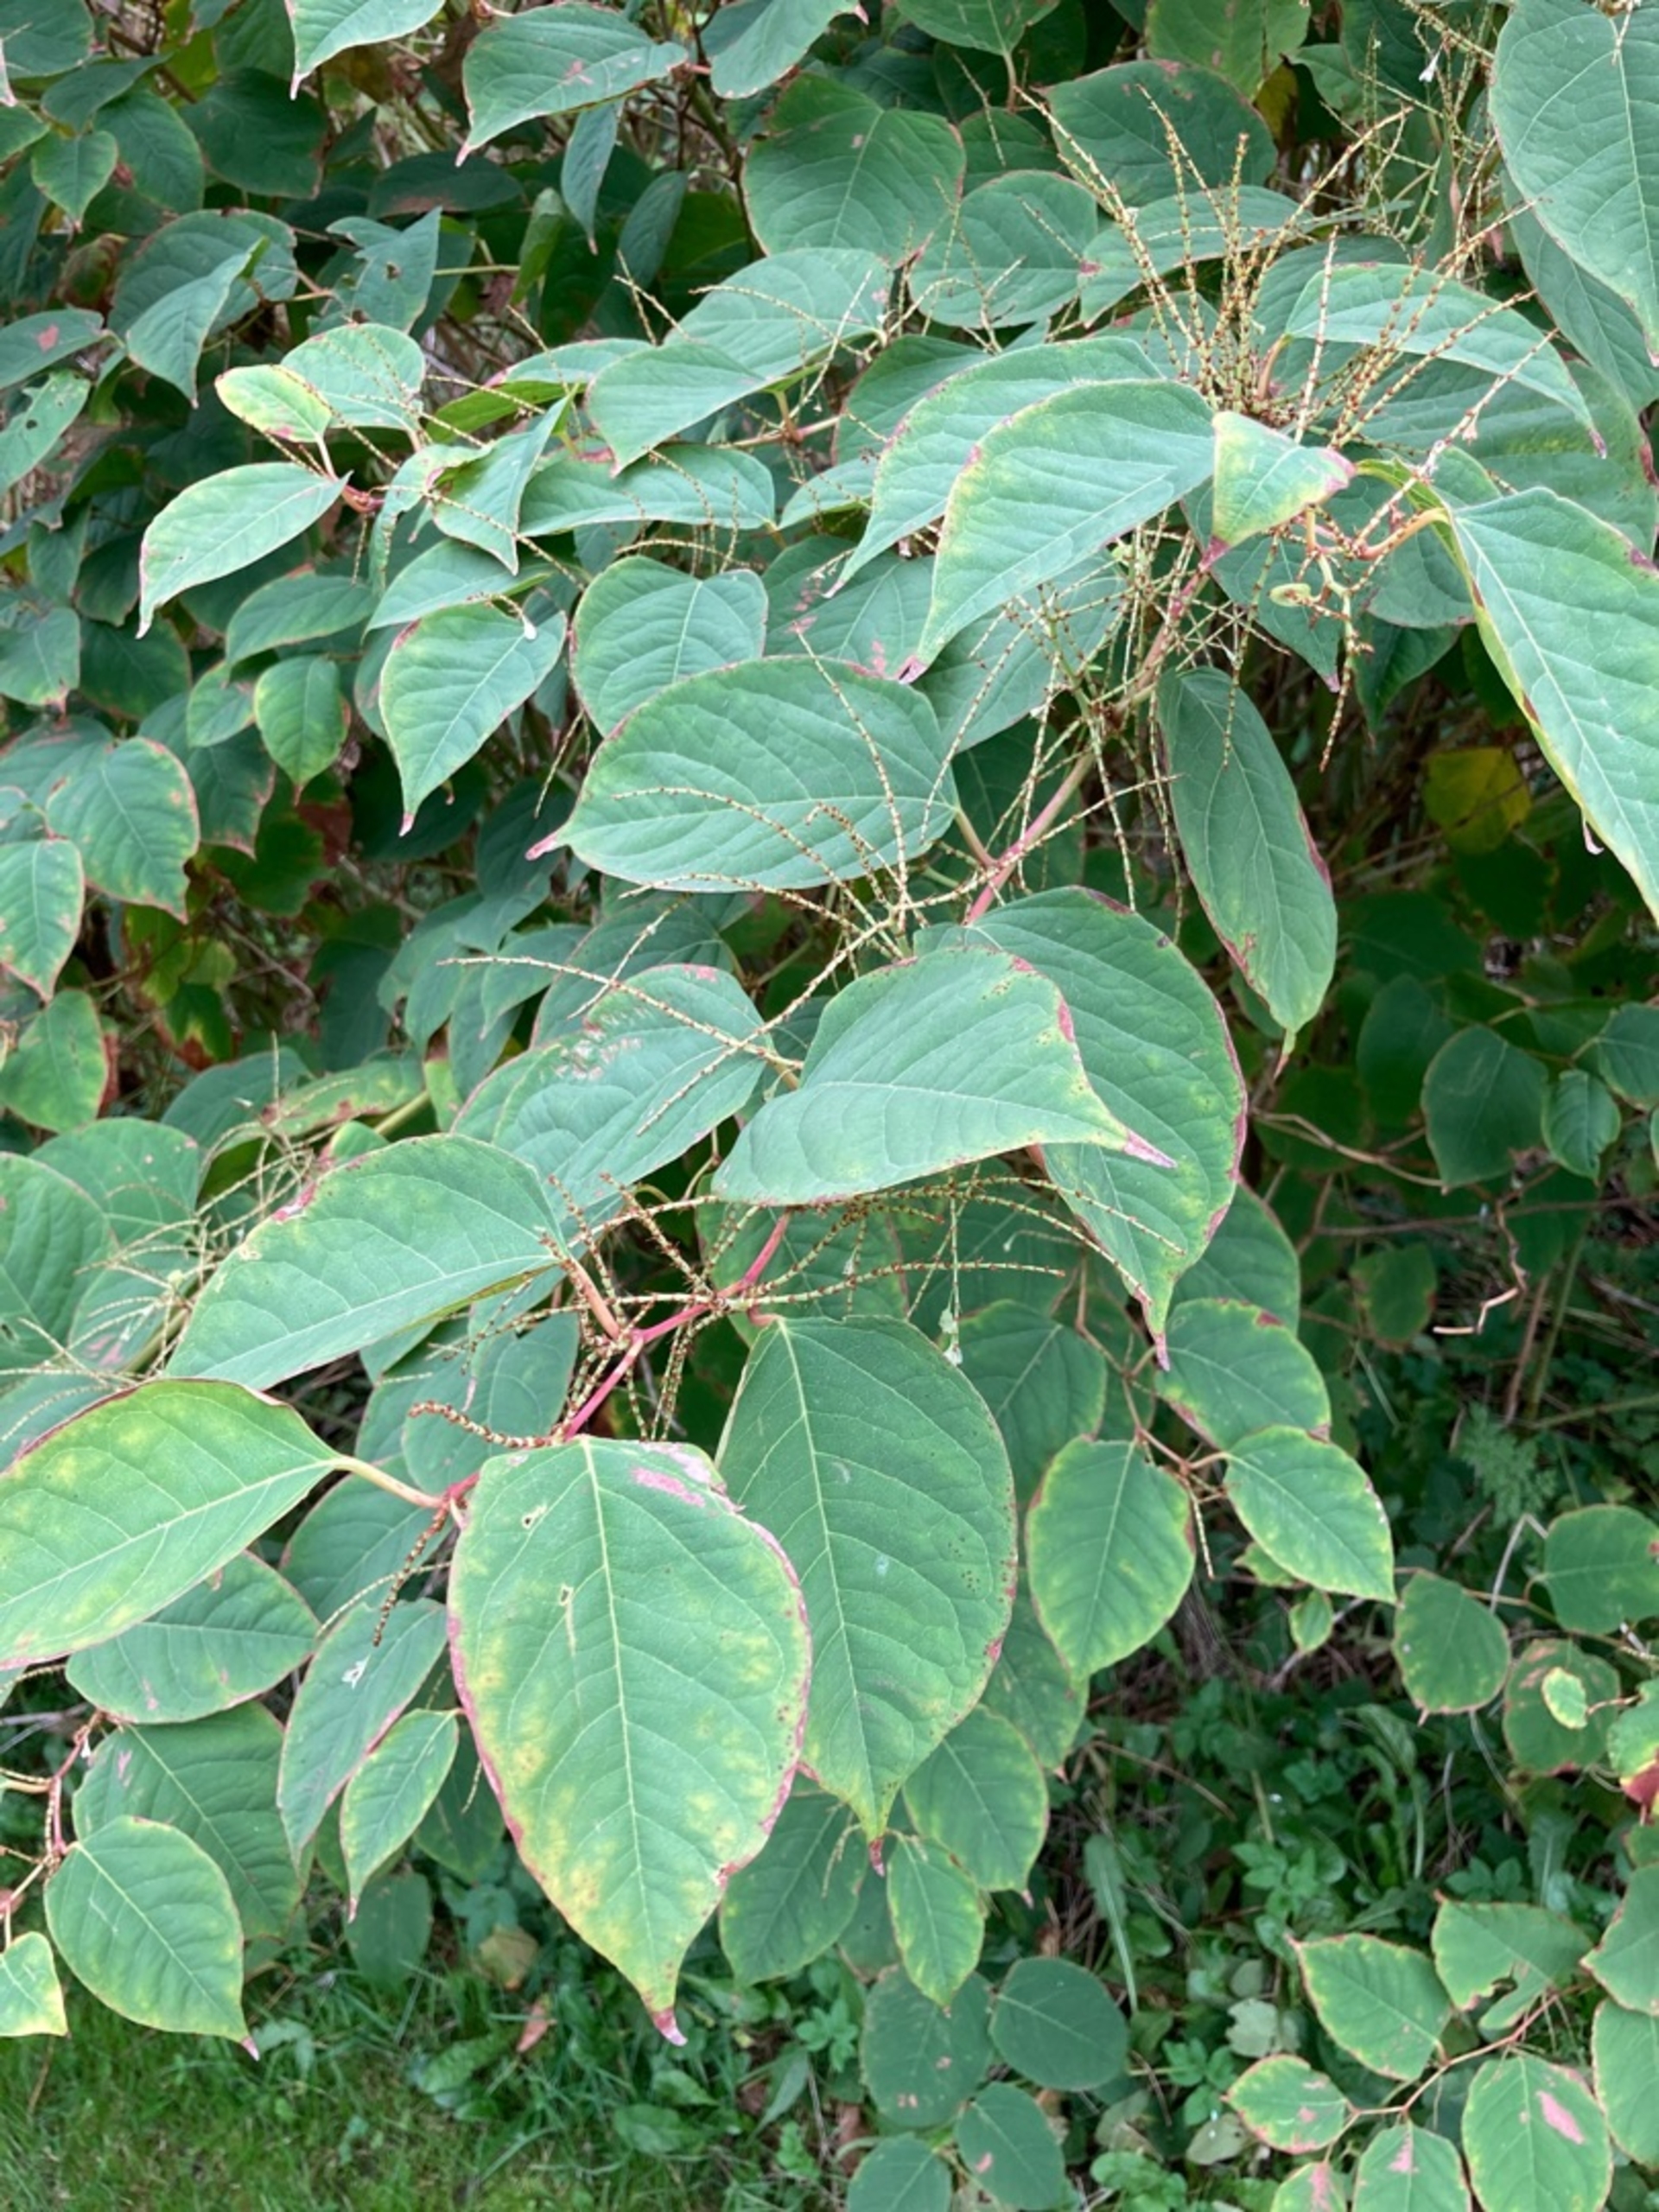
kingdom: Plantae
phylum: Tracheophyta
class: Magnoliopsida
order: Caryophyllales
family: Polygonaceae
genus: Reynoutria
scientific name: Reynoutria japonica
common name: Japan-pileurt
